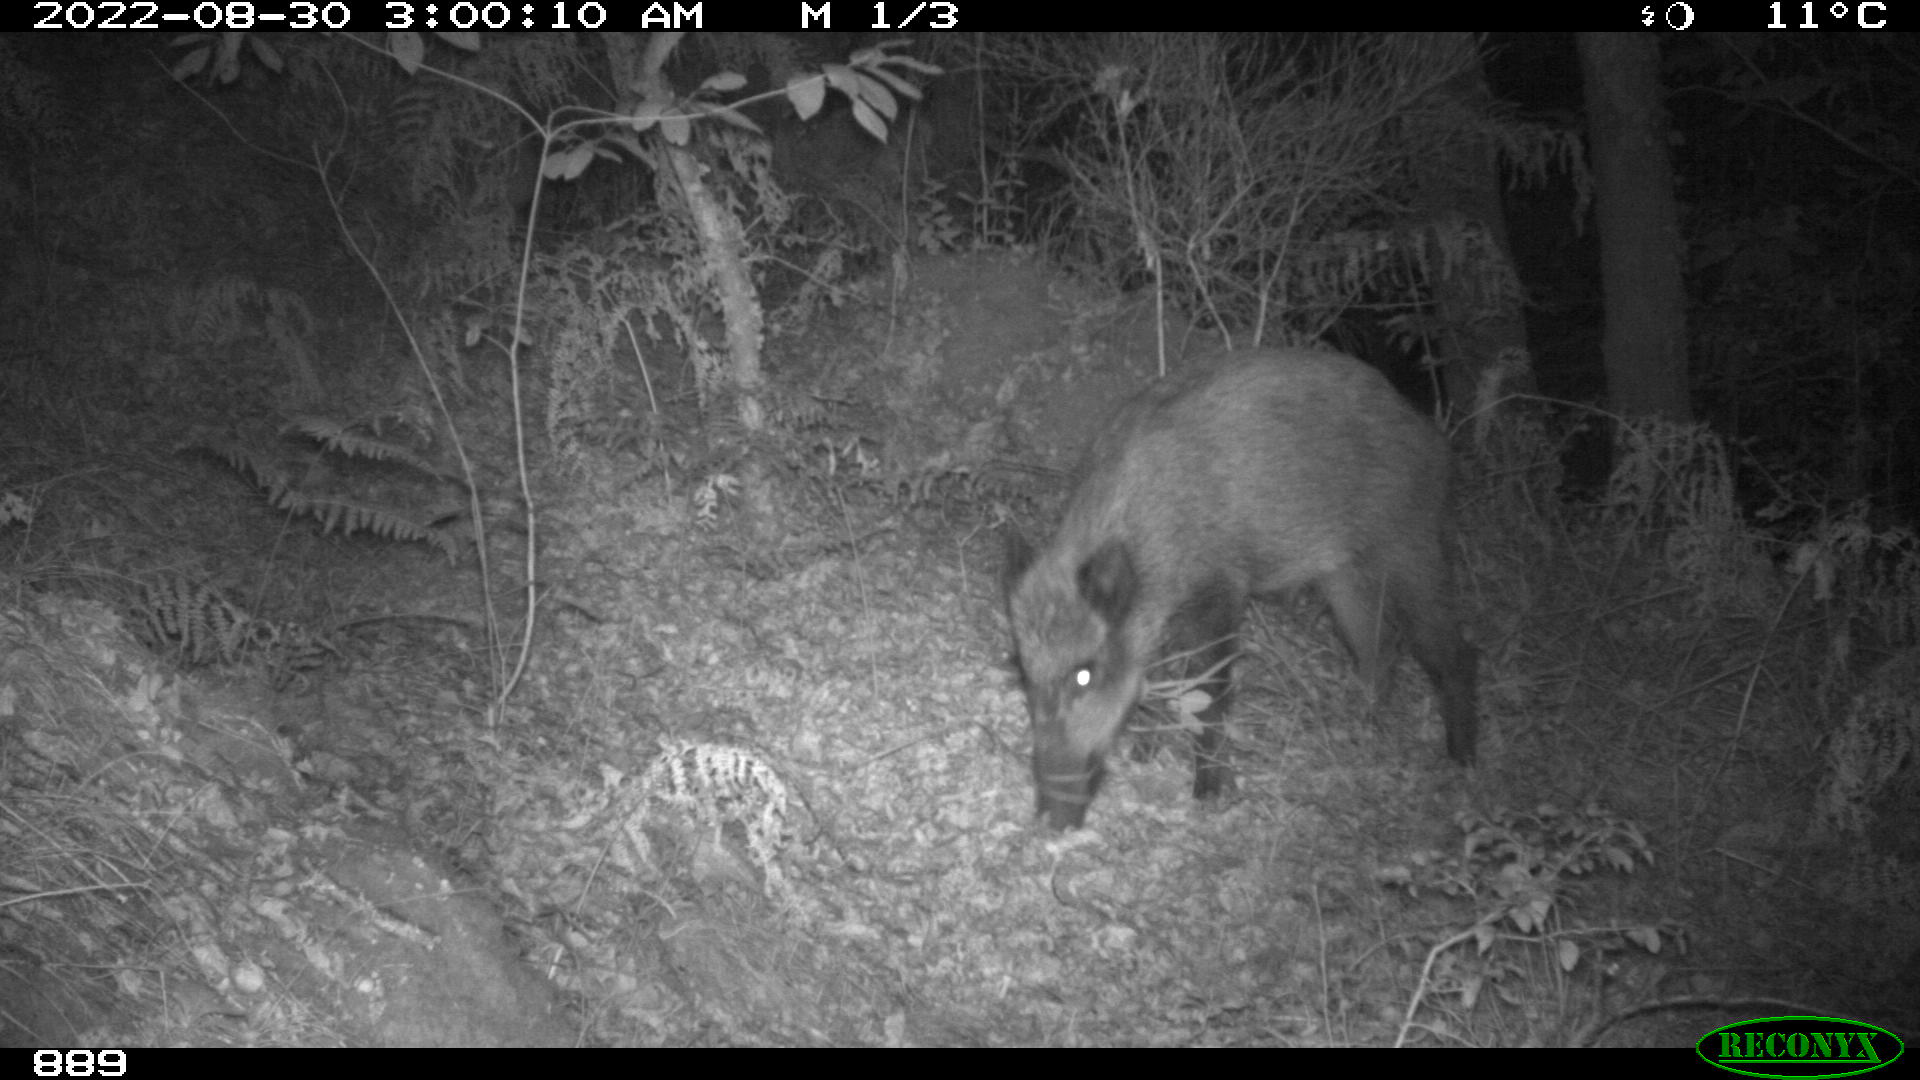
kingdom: Animalia
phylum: Chordata
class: Mammalia
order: Artiodactyla
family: Suidae
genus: Sus
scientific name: Sus scrofa
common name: Wild boar
